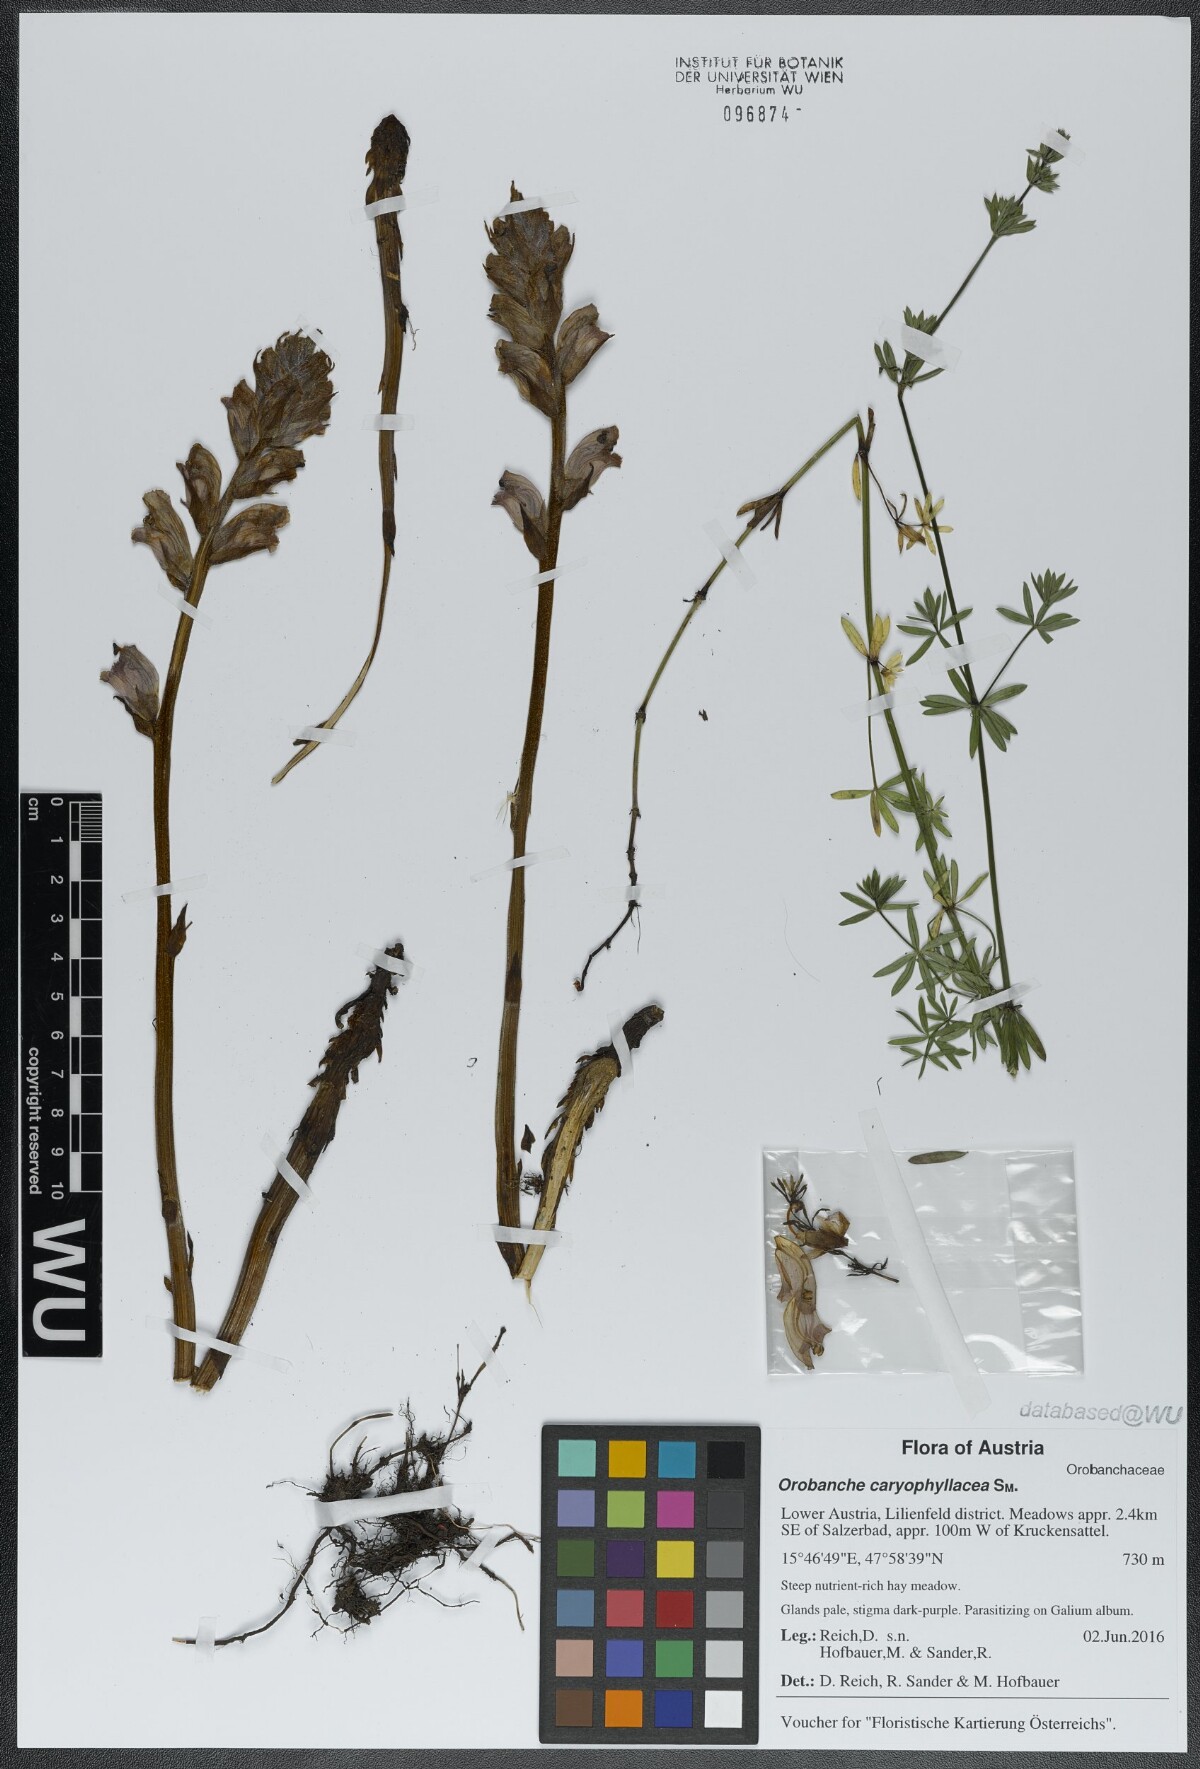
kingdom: Plantae
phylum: Tracheophyta
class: Magnoliopsida
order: Lamiales
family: Orobanchaceae
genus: Orobanche
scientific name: Orobanche caryophyllacea
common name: Bedstraw broomrape
